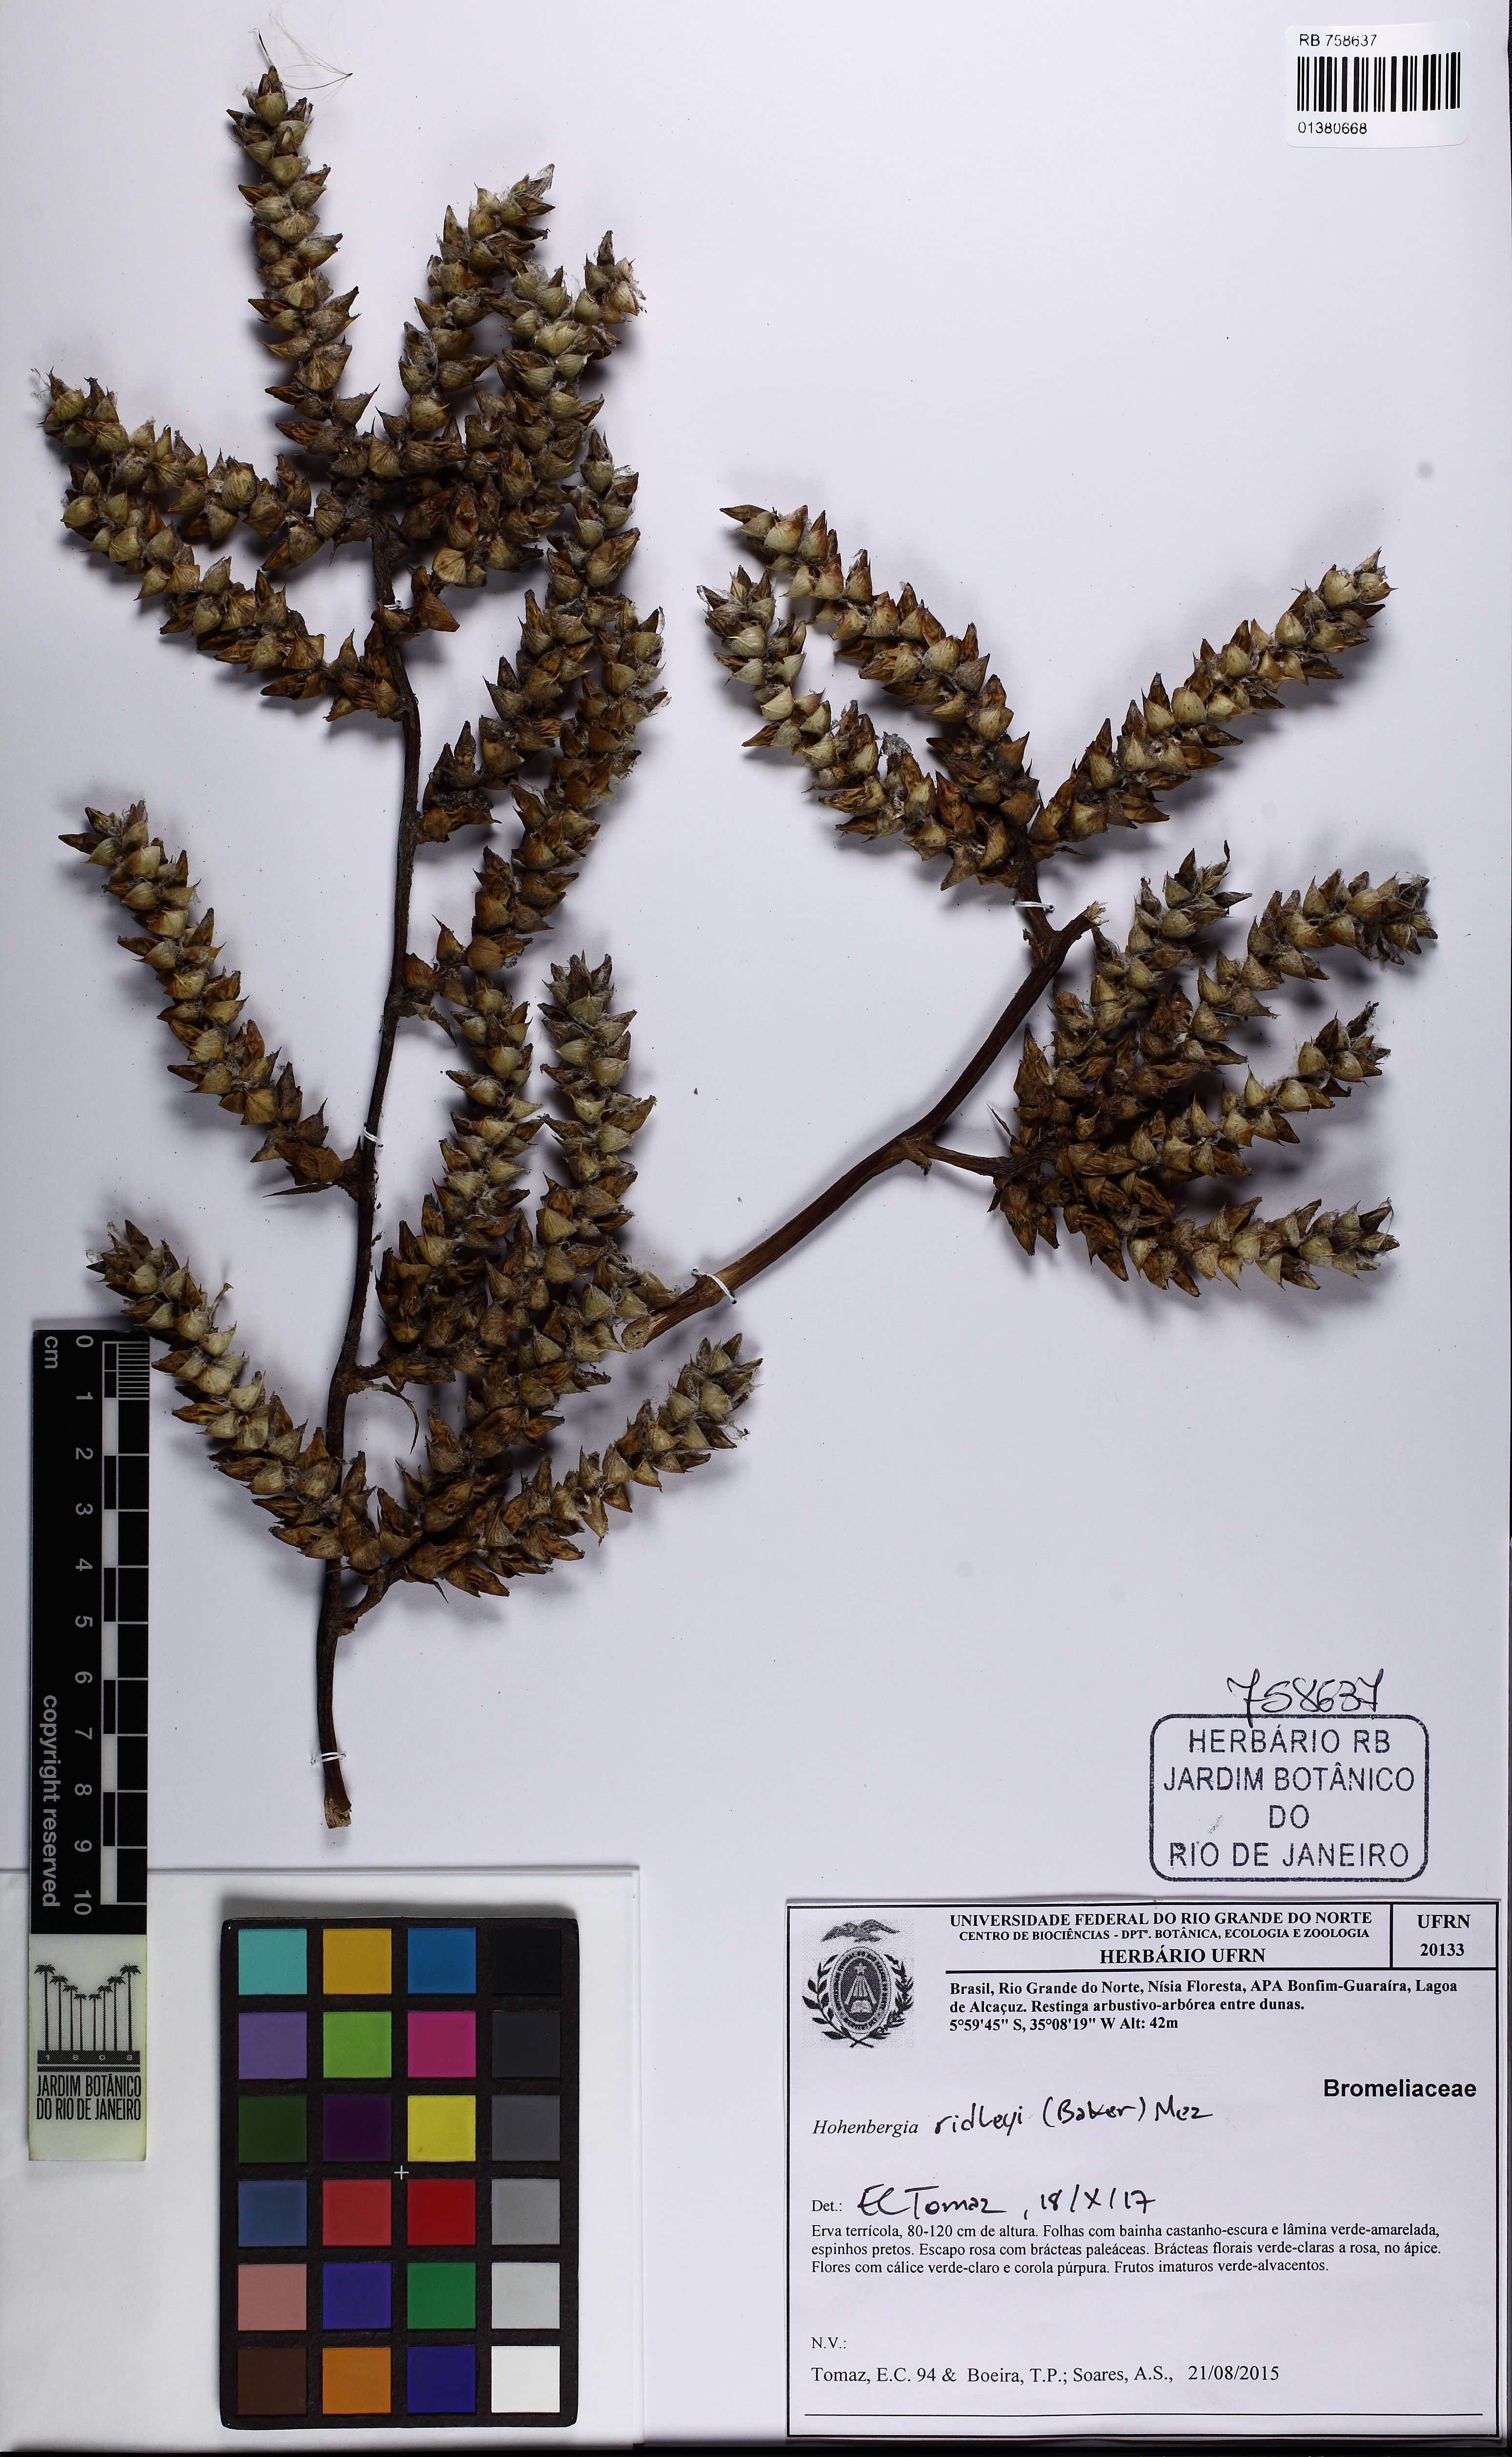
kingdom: Plantae
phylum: Tracheophyta
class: Liliopsida
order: Poales
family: Bromeliaceae
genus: Hohenbergia
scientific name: Hohenbergia ridleyi
